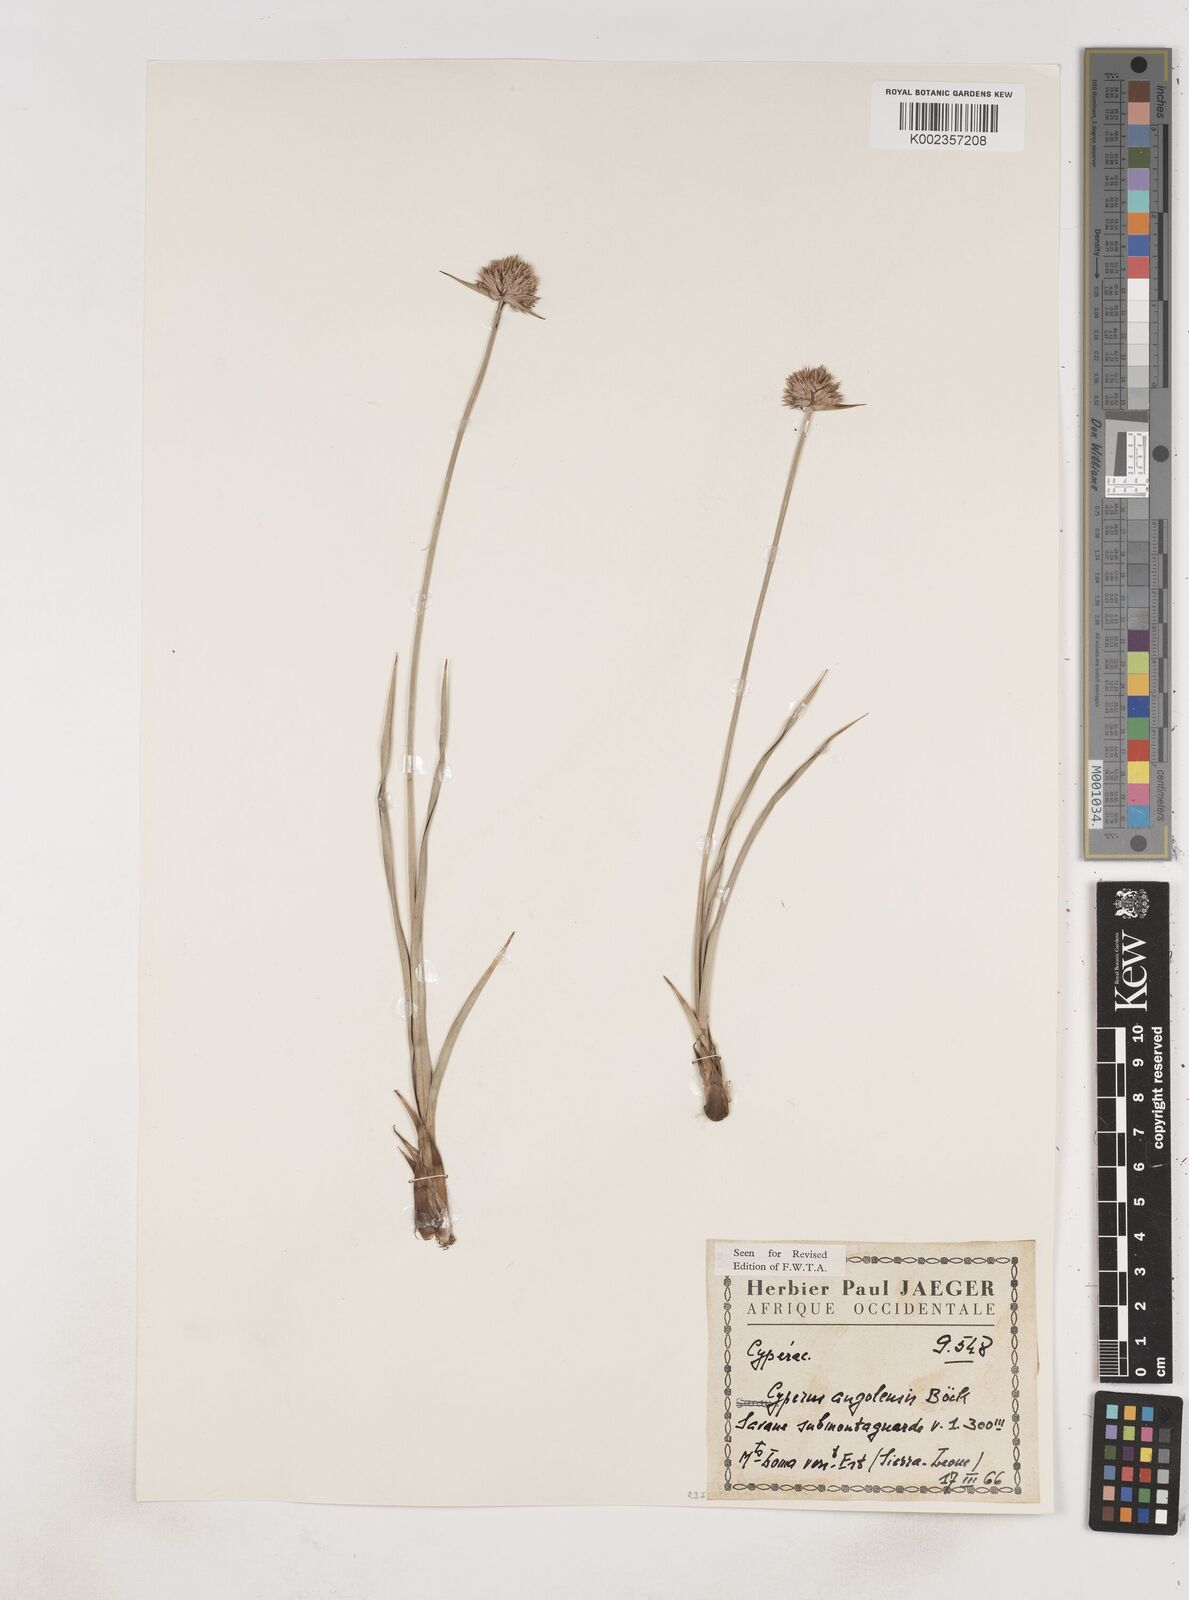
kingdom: Plantae
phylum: Tracheophyta
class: Liliopsida
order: Poales
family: Cyperaceae
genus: Cyperus
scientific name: Cyperus angolensis
